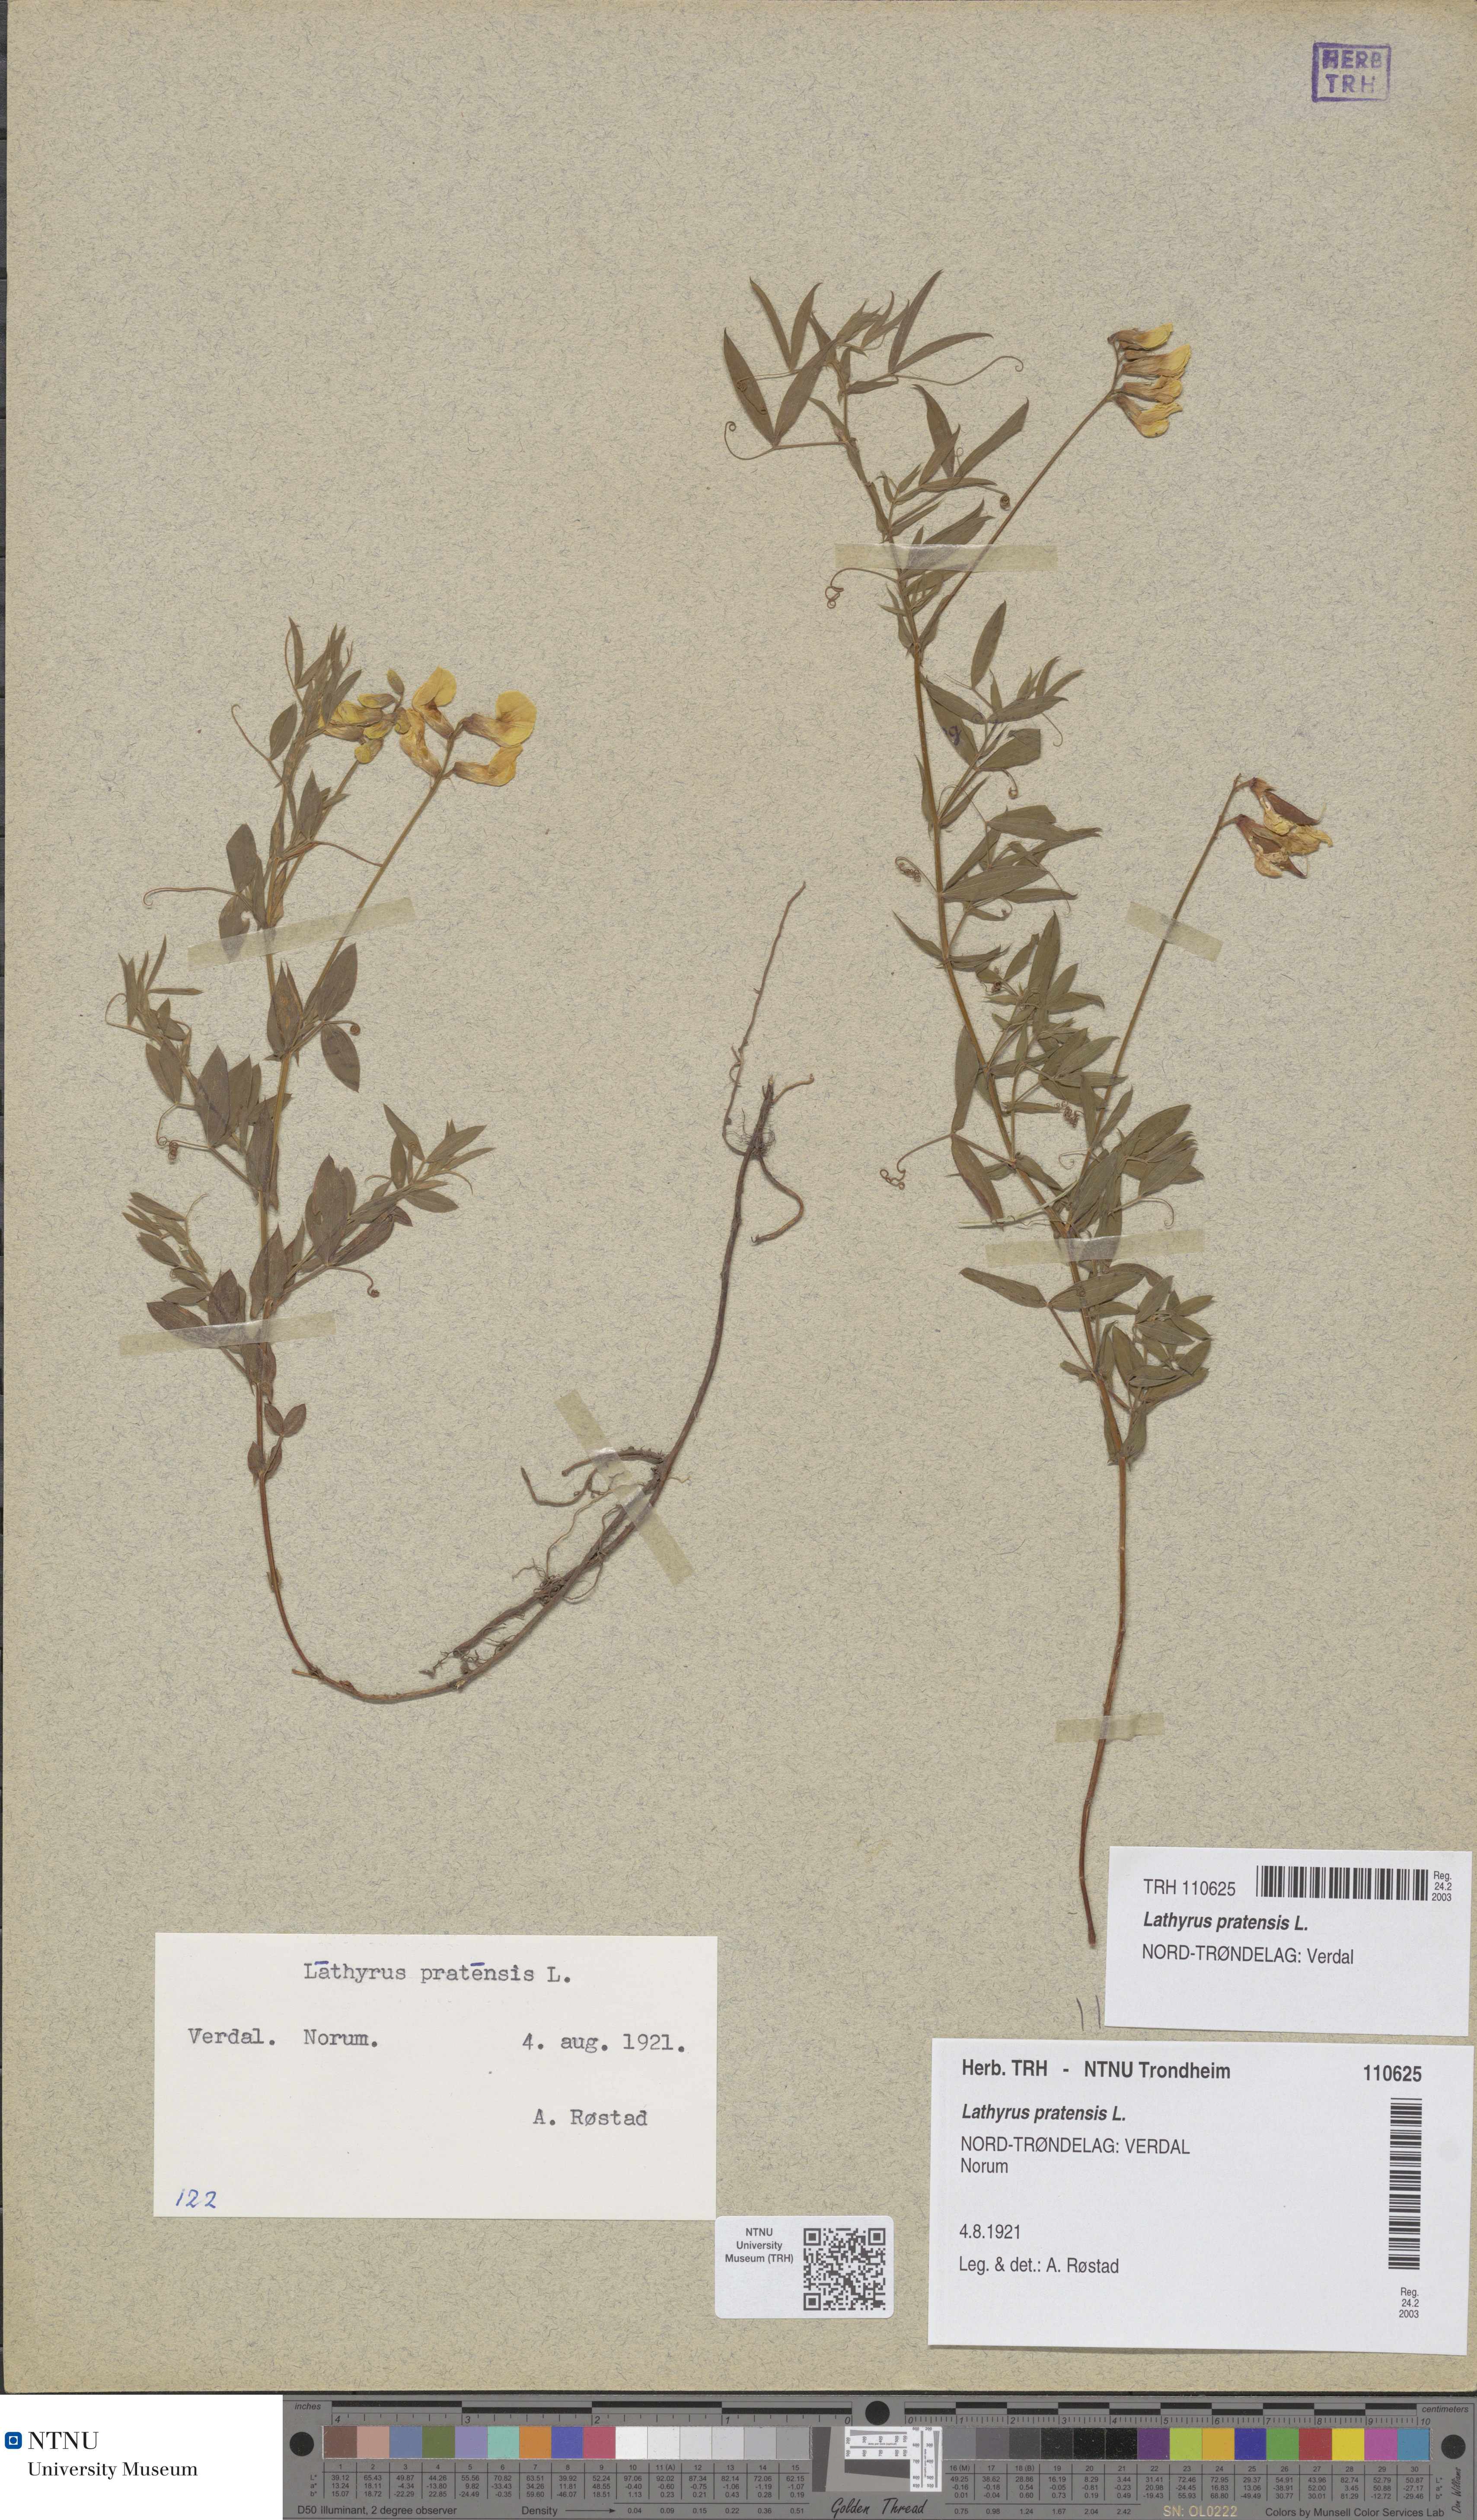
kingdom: Plantae
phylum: Tracheophyta
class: Magnoliopsida
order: Fabales
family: Fabaceae
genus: Lathyrus
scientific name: Lathyrus pratensis
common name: Meadow vetchling
